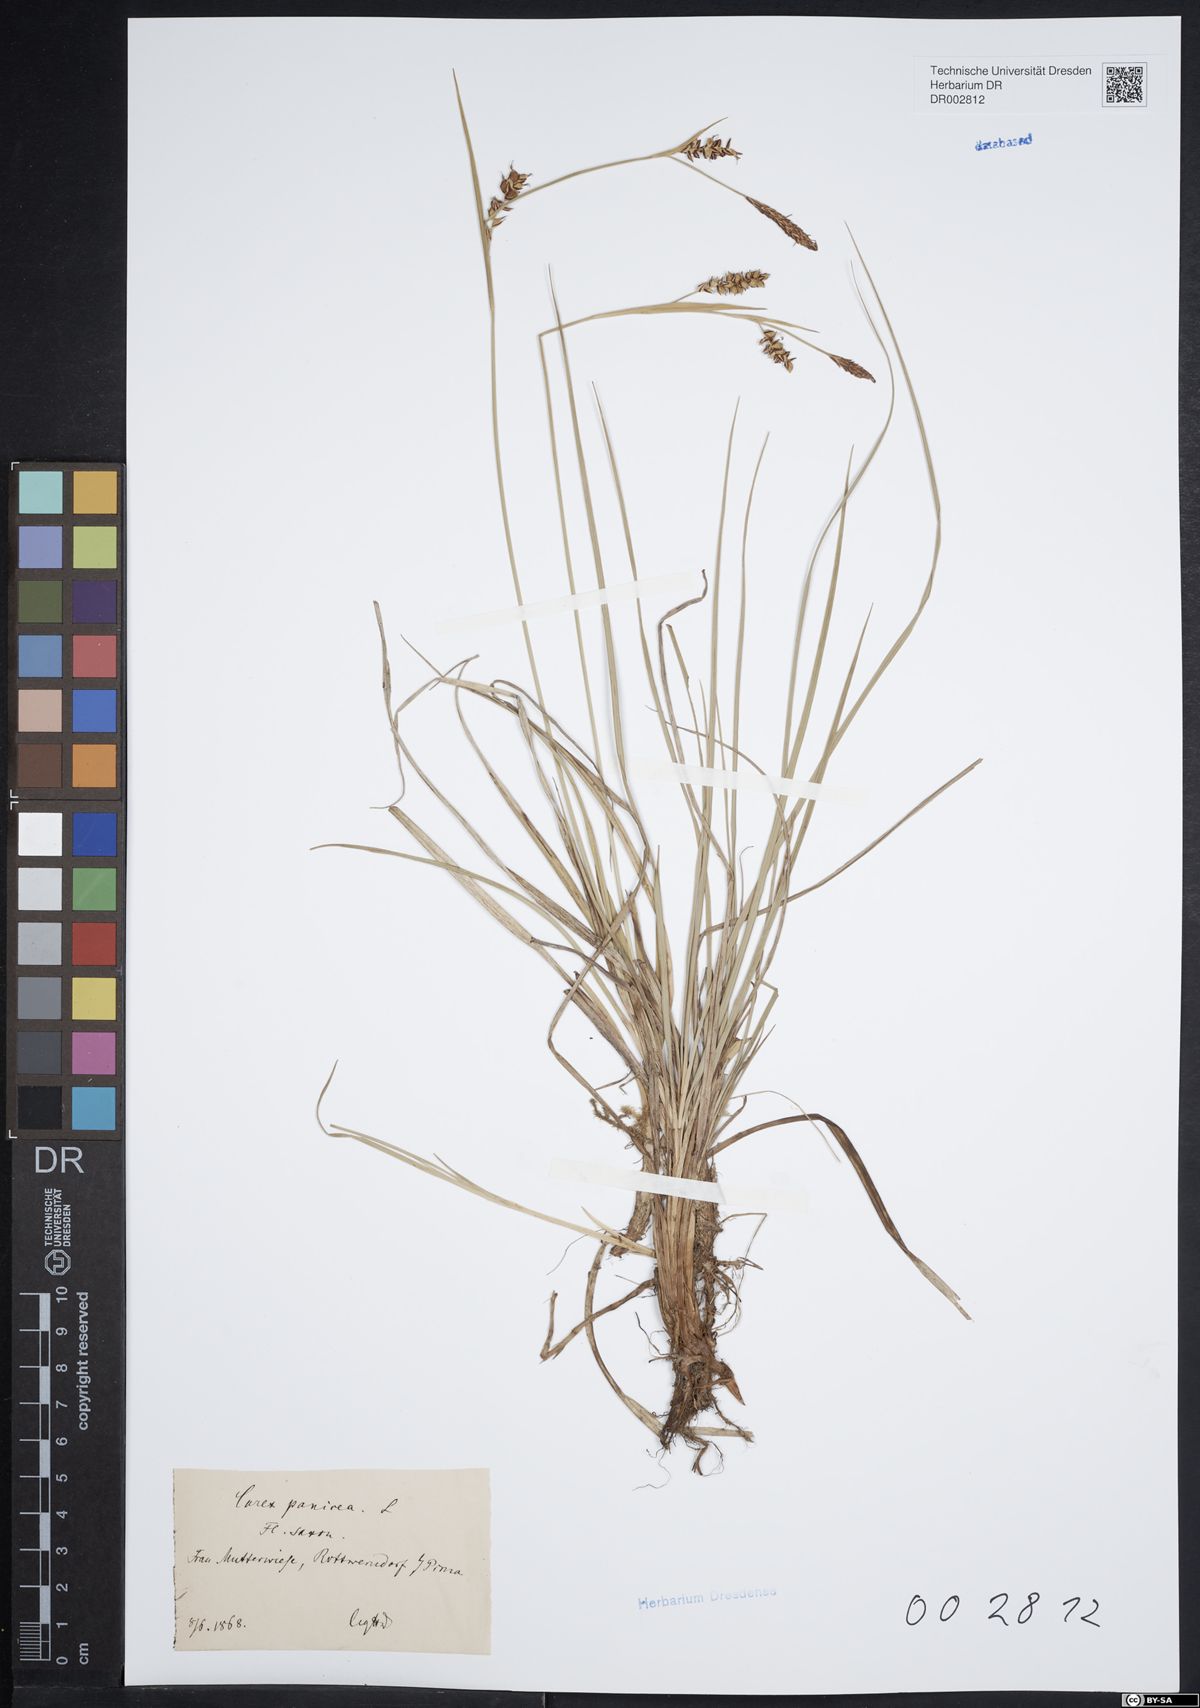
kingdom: Plantae
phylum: Tracheophyta
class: Liliopsida
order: Poales
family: Cyperaceae
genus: Carex
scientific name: Carex panicea
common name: Carnation sedge
